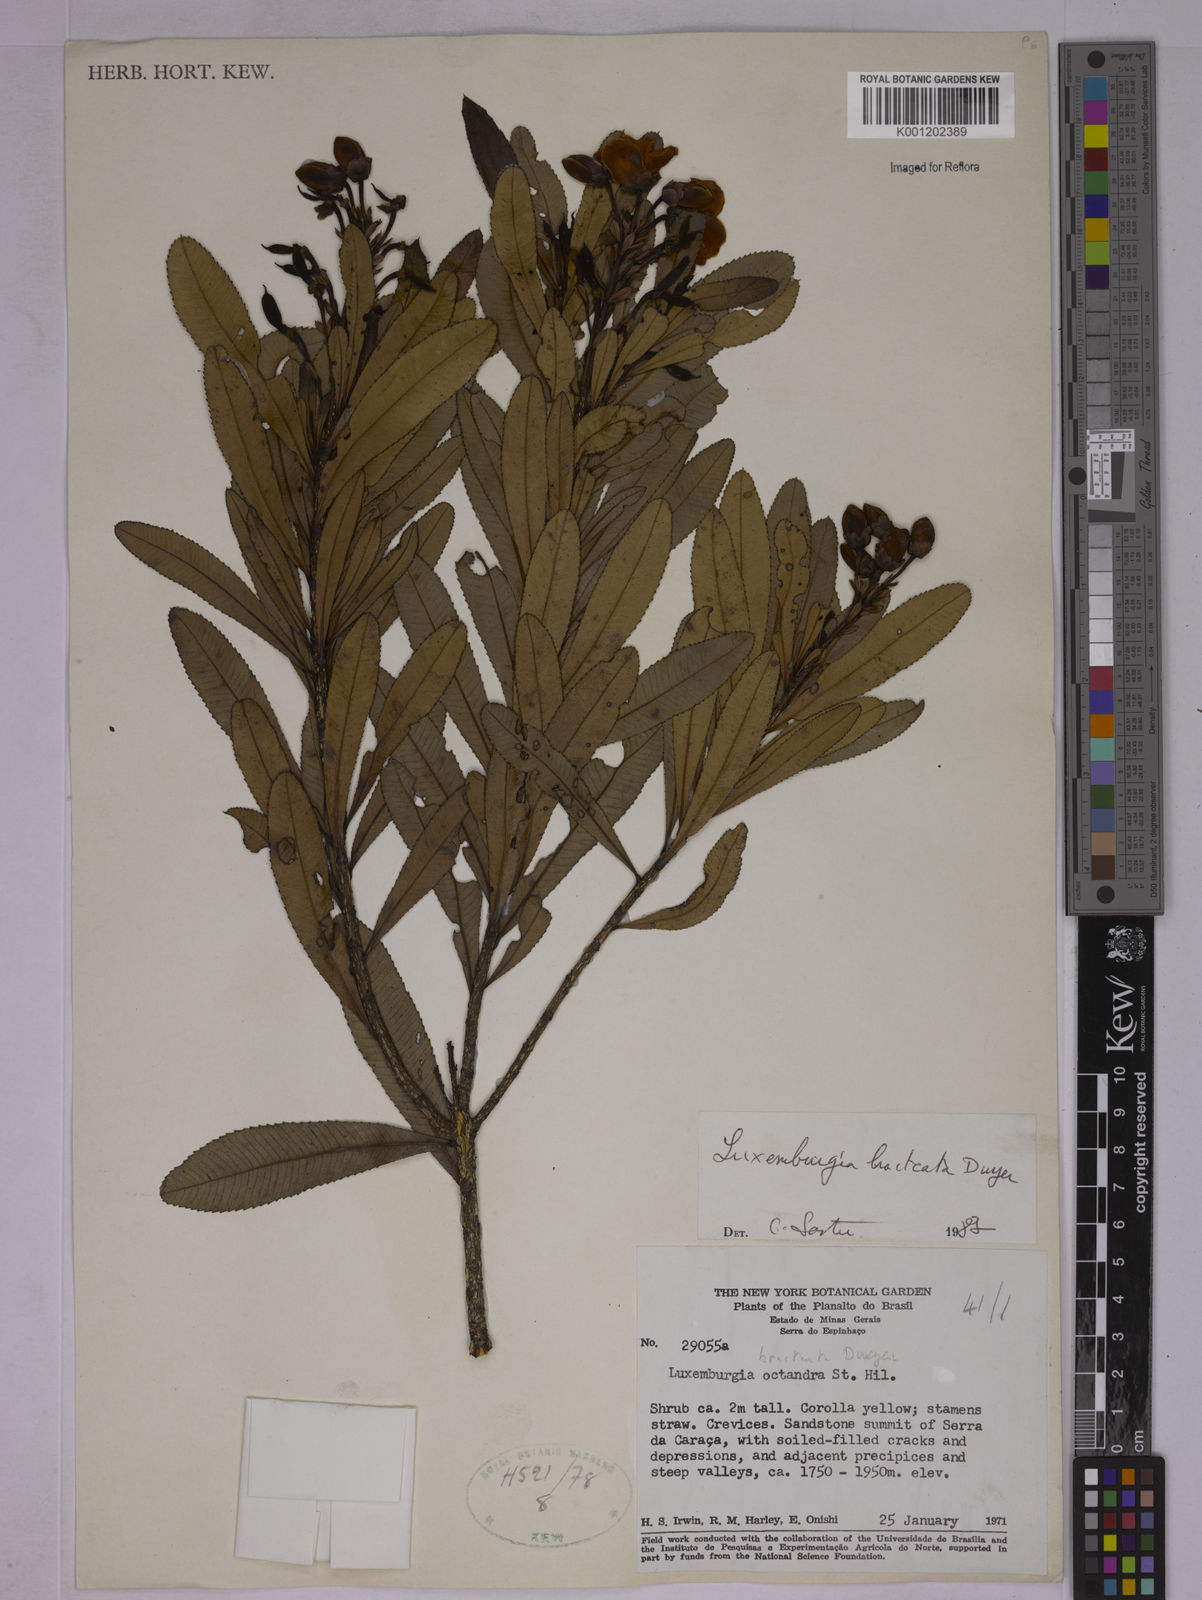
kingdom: Plantae
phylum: Tracheophyta
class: Magnoliopsida
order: Malpighiales
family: Ochnaceae
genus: Luxemburgia
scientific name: Luxemburgia bracteata
